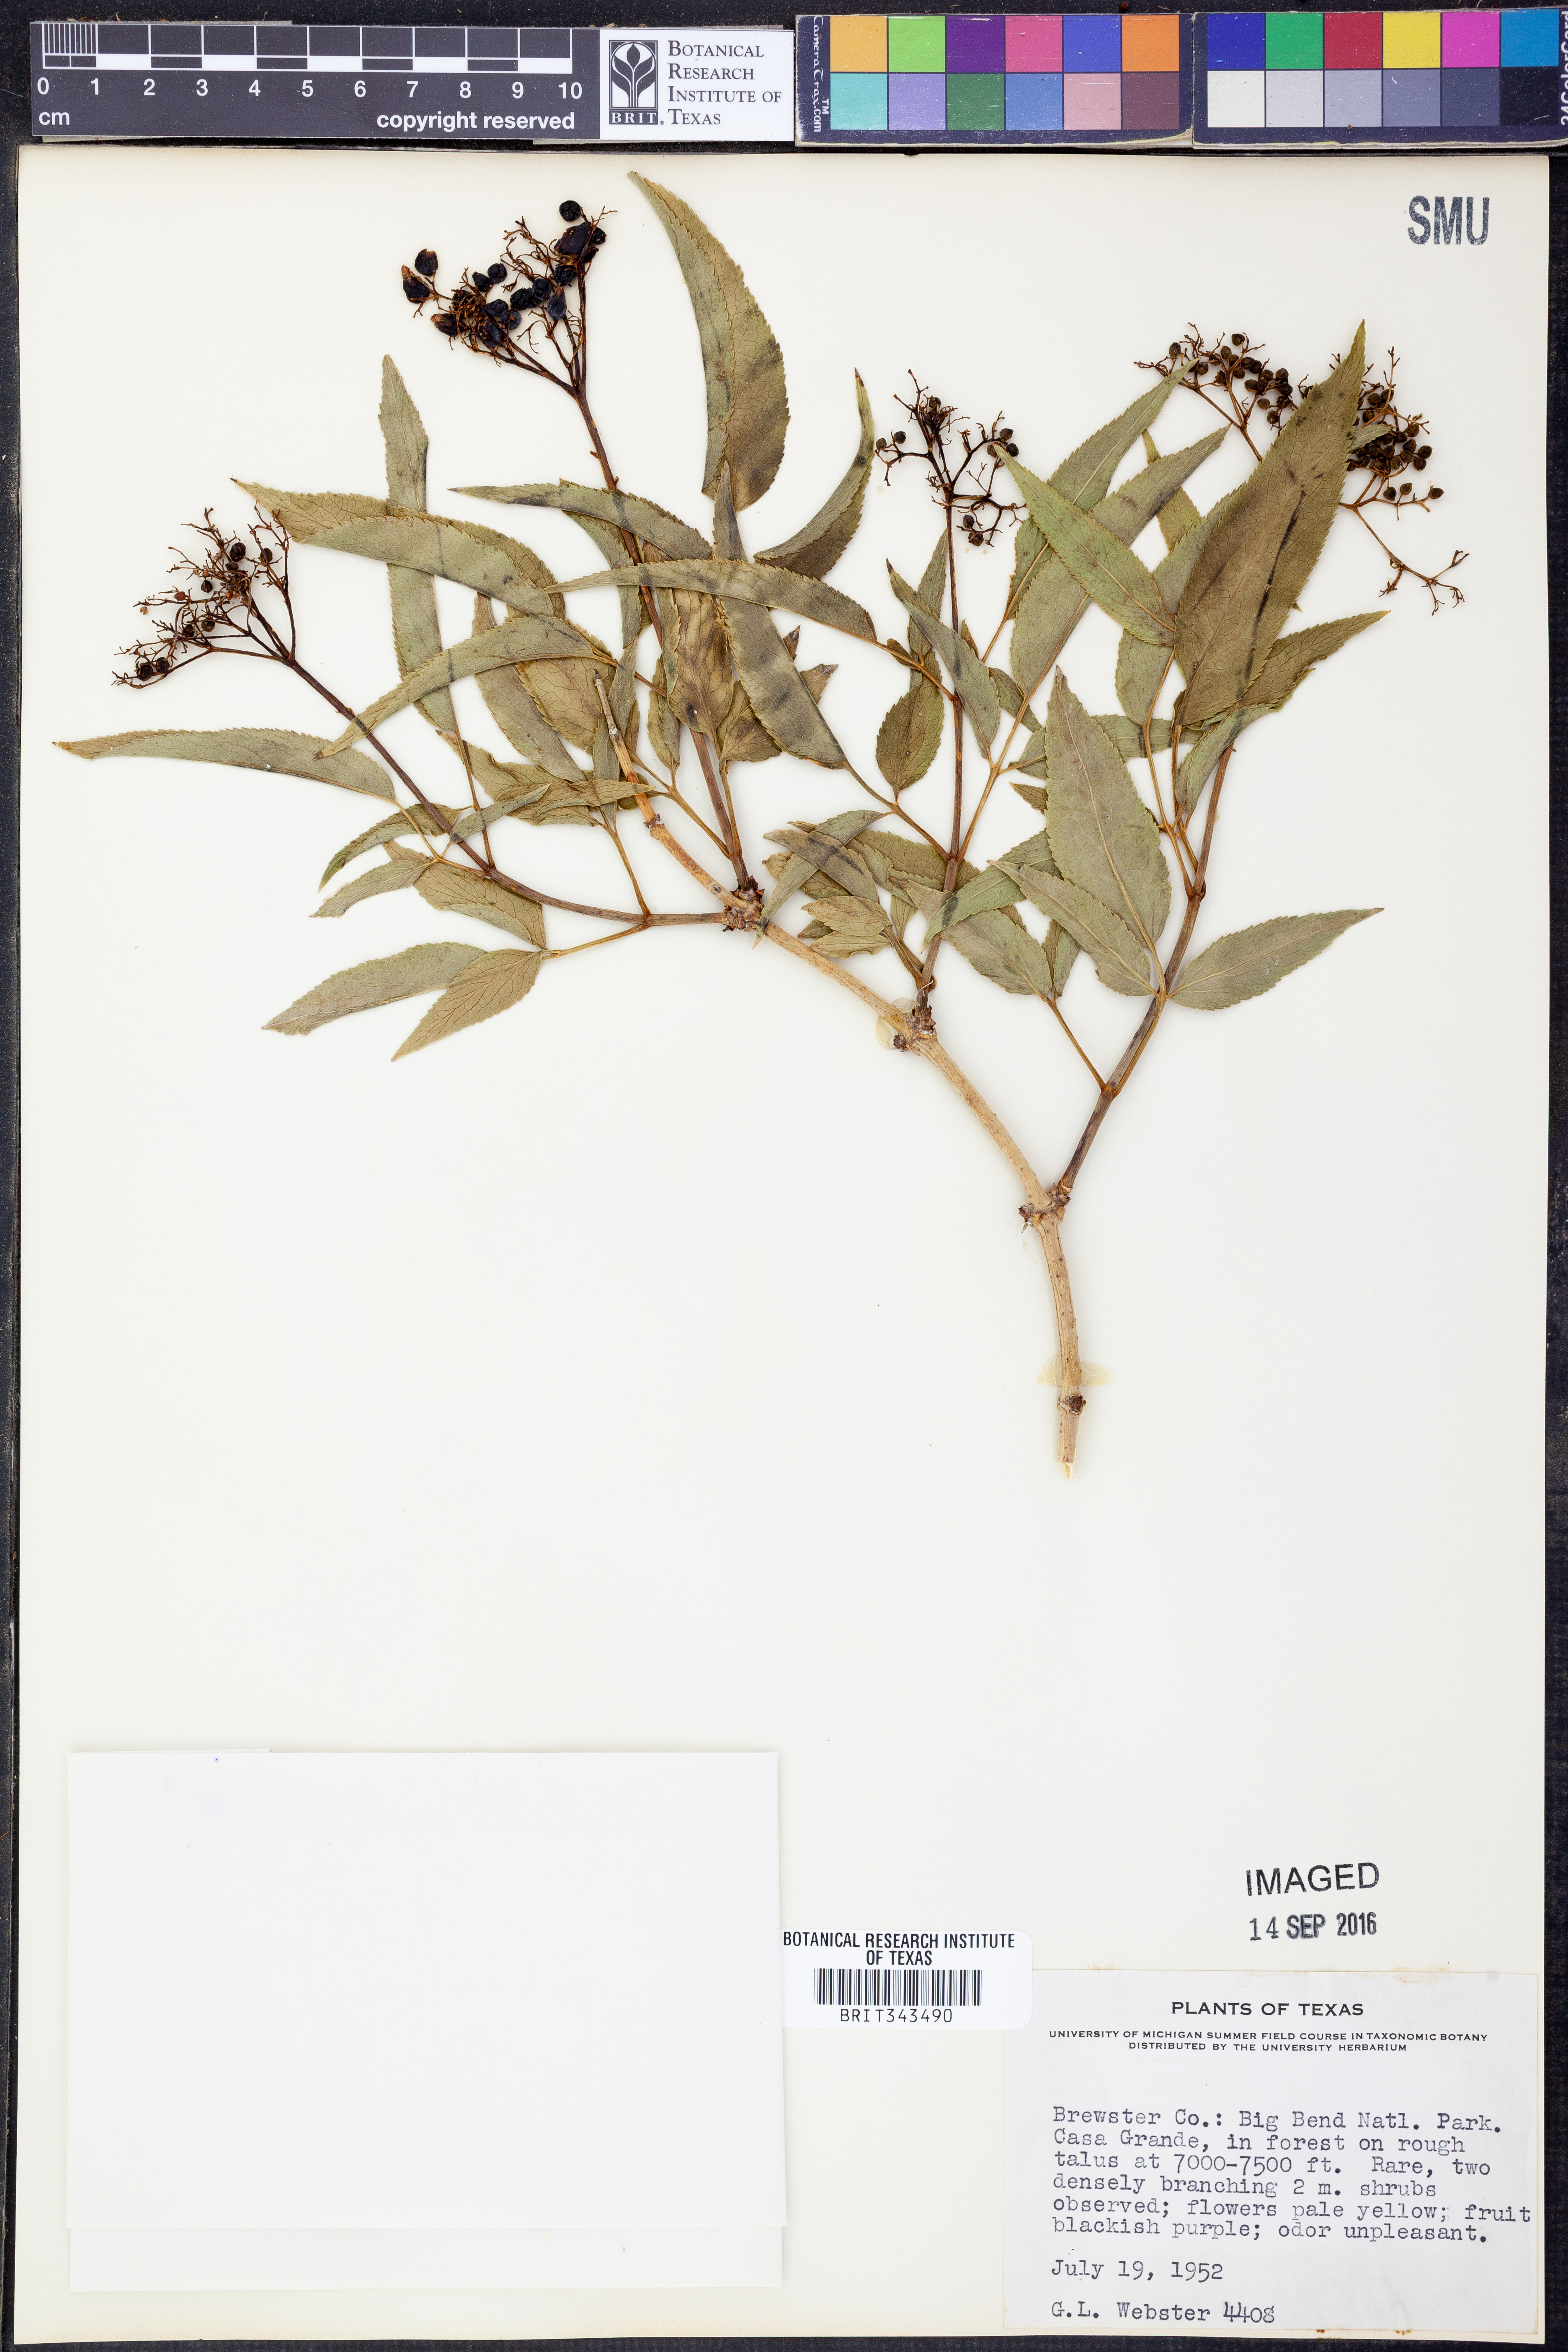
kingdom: Plantae
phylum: Tracheophyta
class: Magnoliopsida
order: Dipsacales
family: Viburnaceae
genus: Sambucus
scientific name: Sambucus
